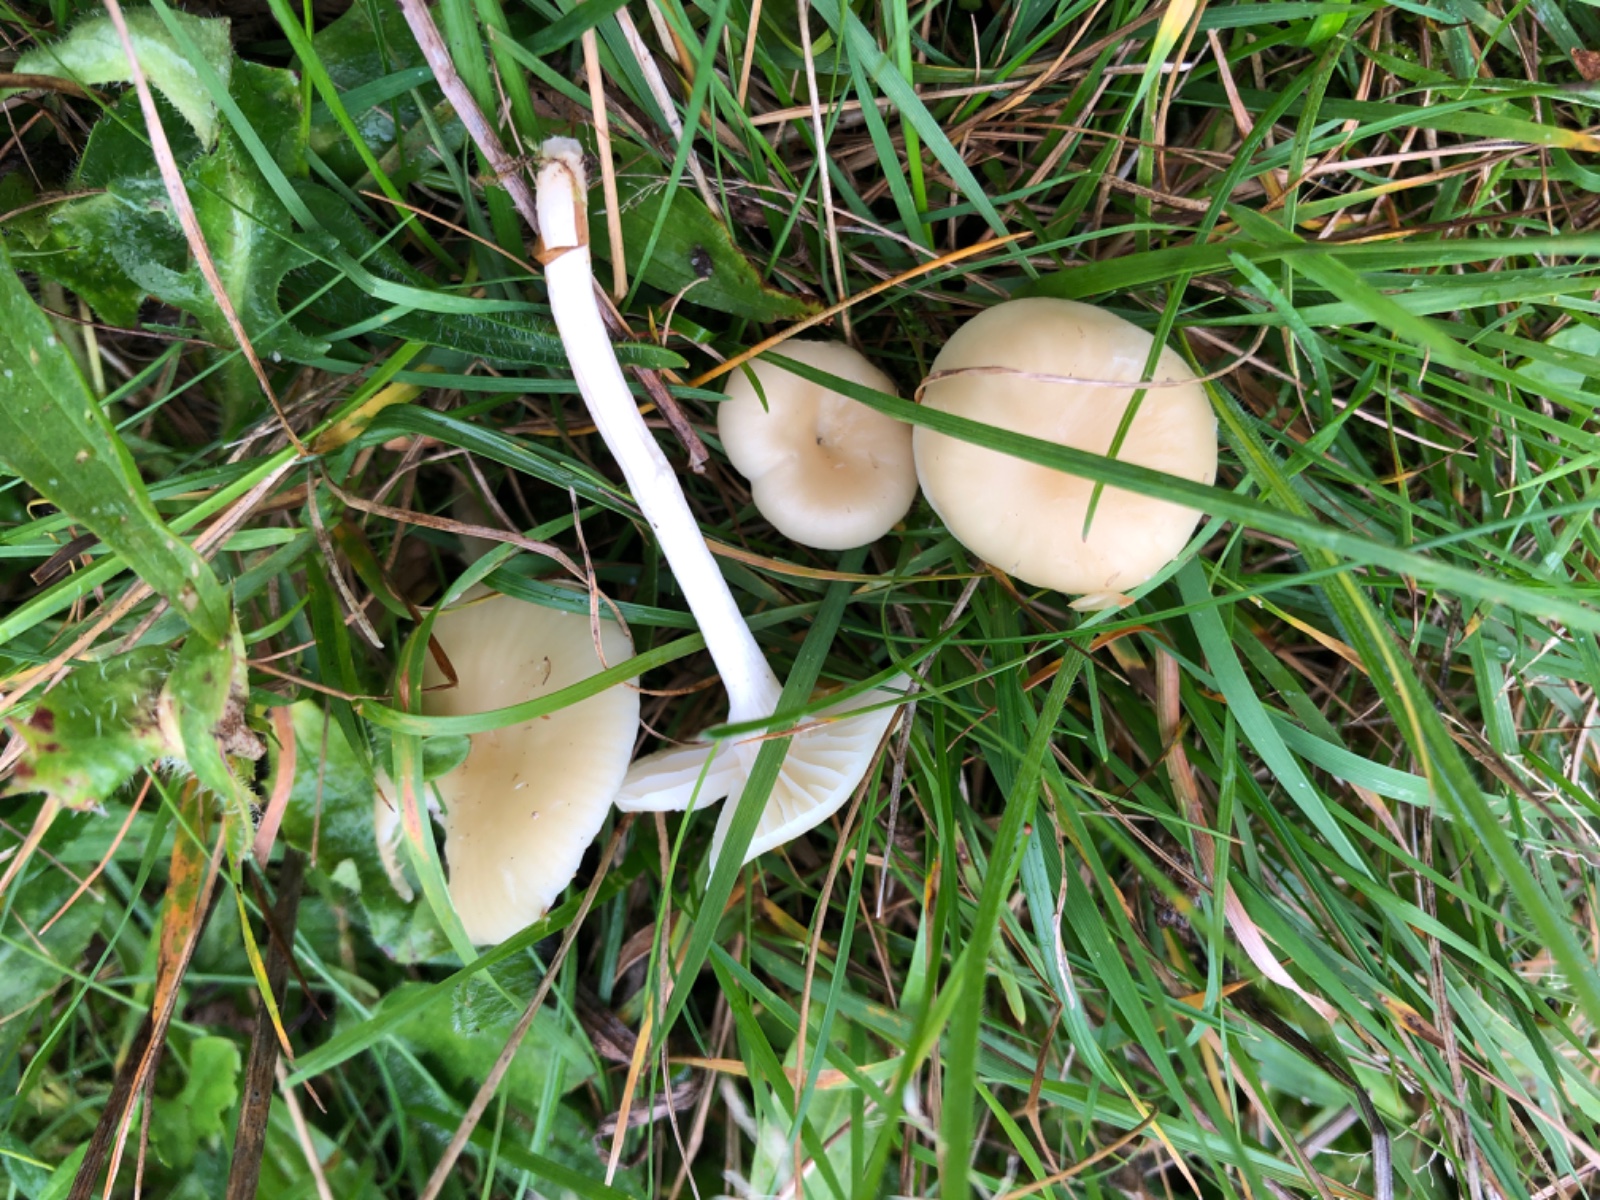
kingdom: Fungi
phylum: Basidiomycota
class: Agaricomycetes
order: Agaricales
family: Hygrophoraceae
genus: Cuphophyllus
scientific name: Cuphophyllus russocoriaceus
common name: ruslæder-vokshat
